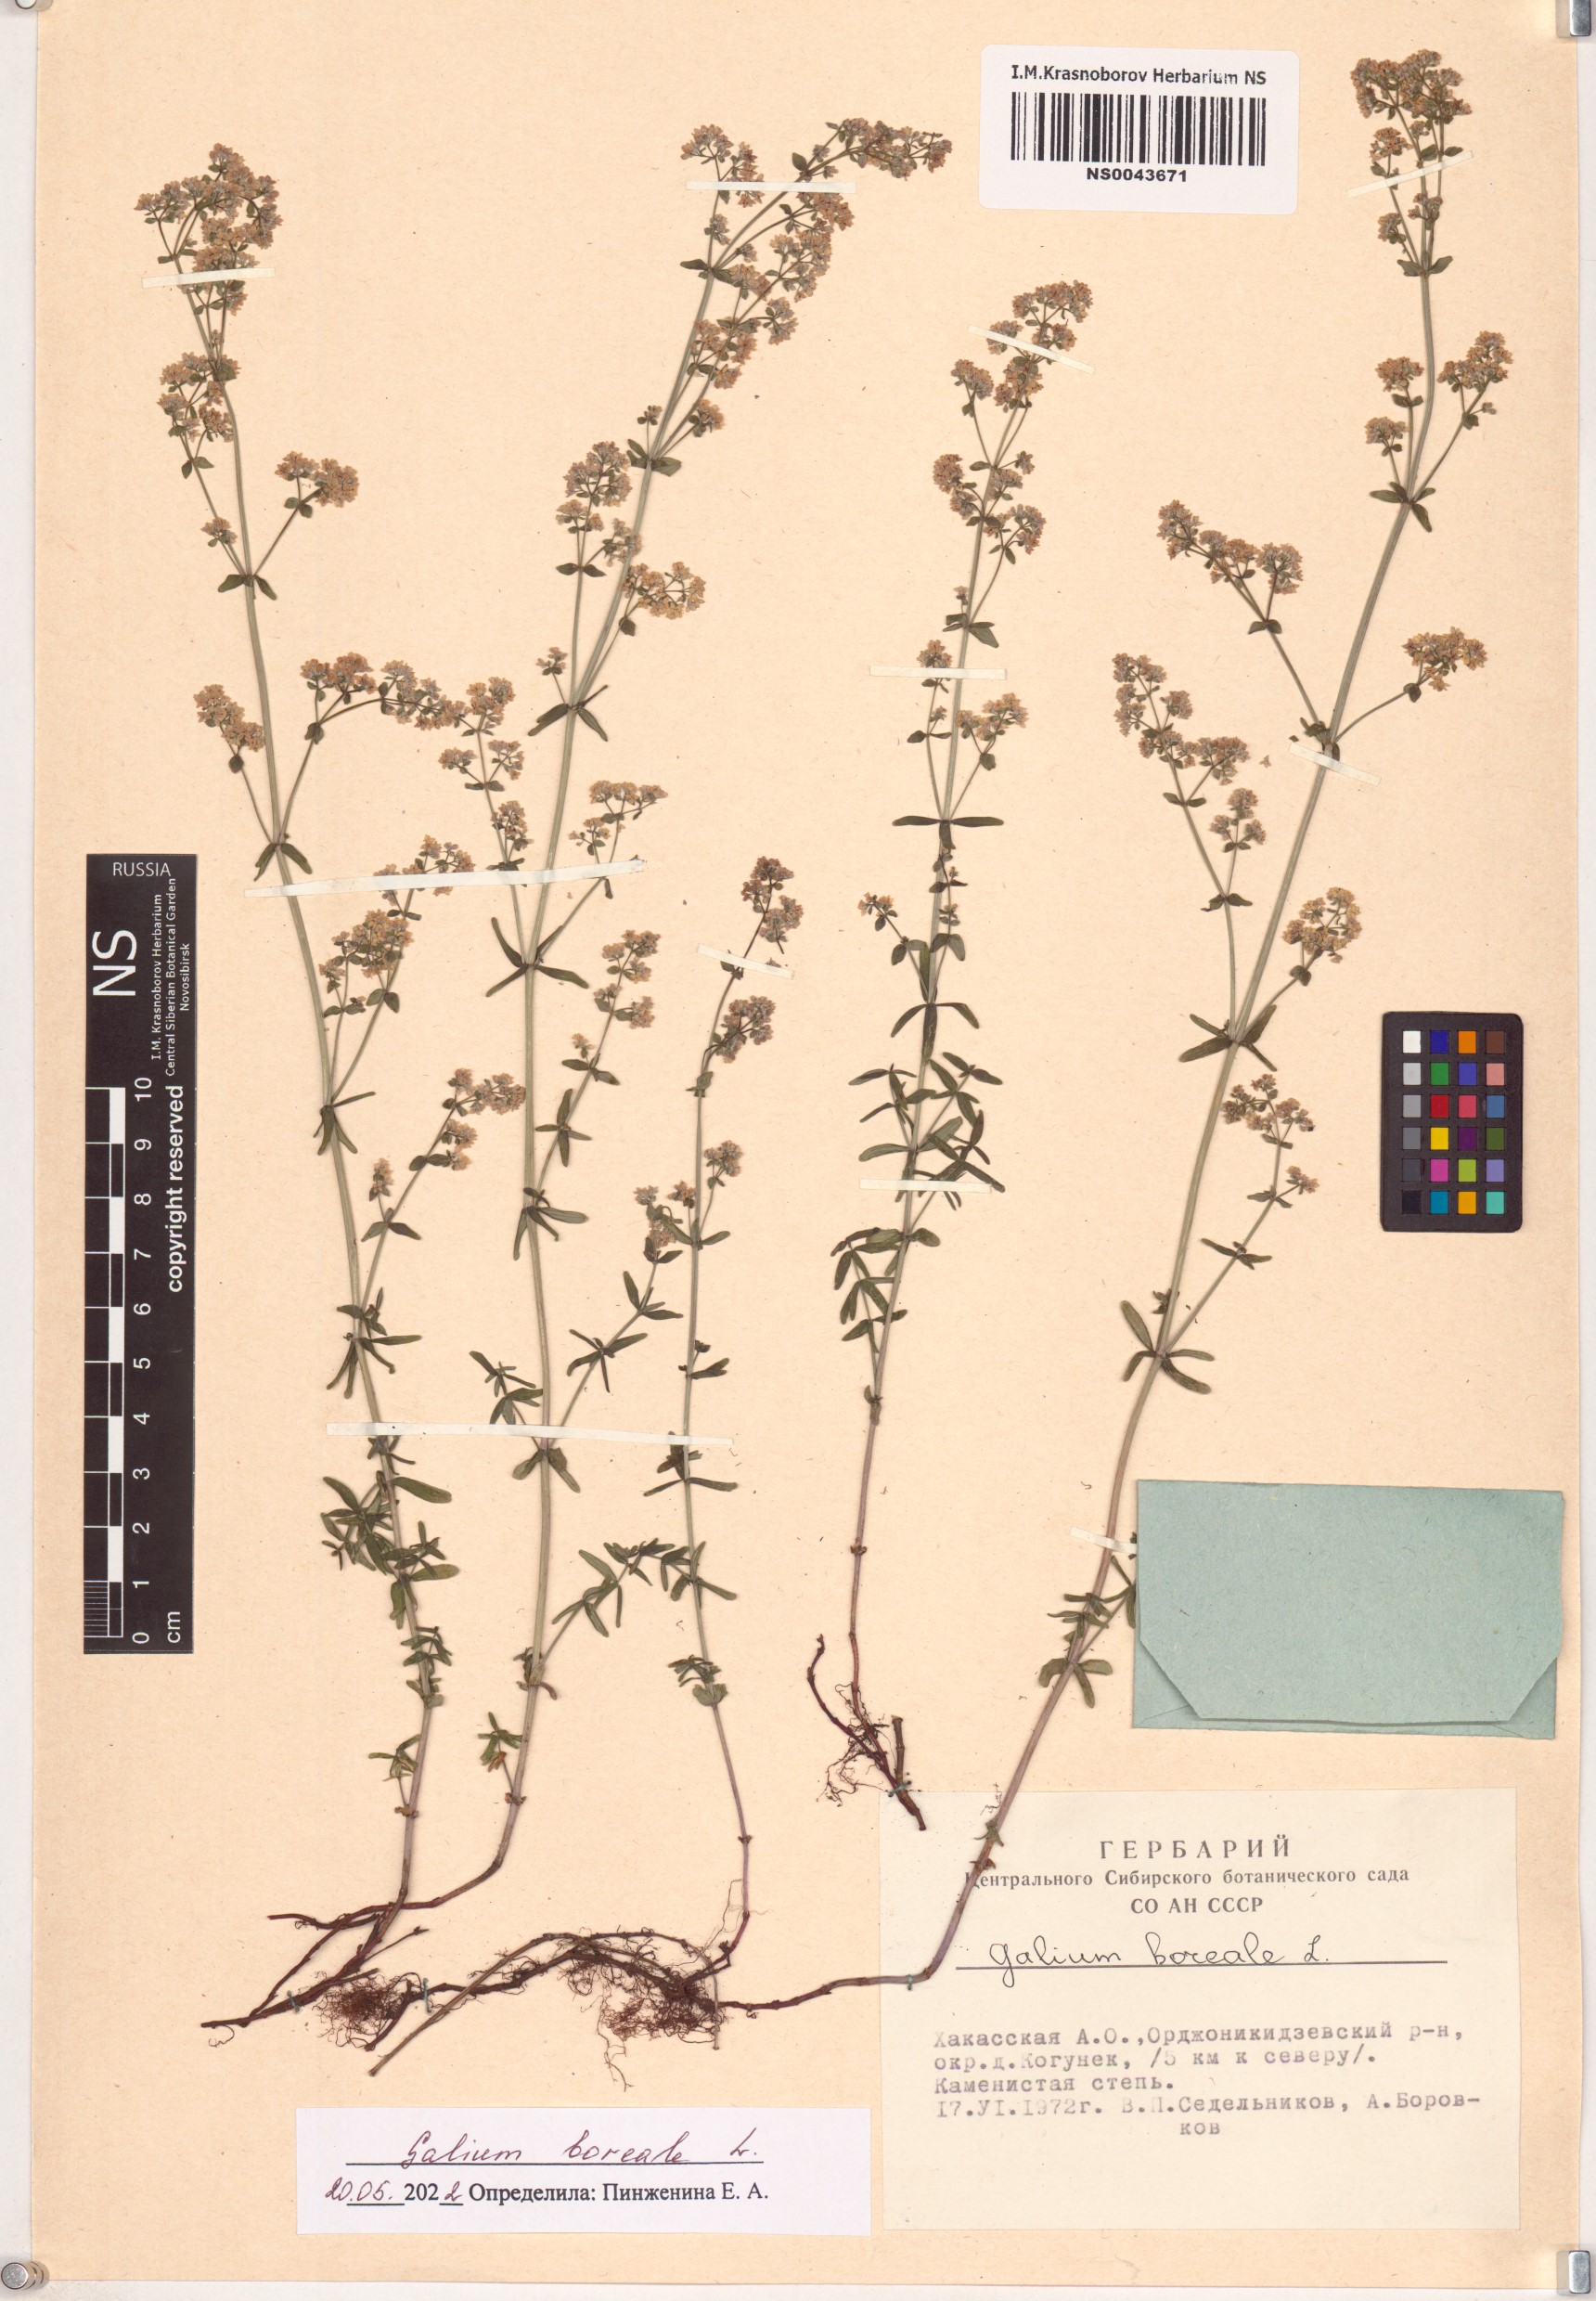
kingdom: Plantae
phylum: Tracheophyta
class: Magnoliopsida
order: Gentianales
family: Rubiaceae
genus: Galium
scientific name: Galium boreale
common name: Northern bedstraw
